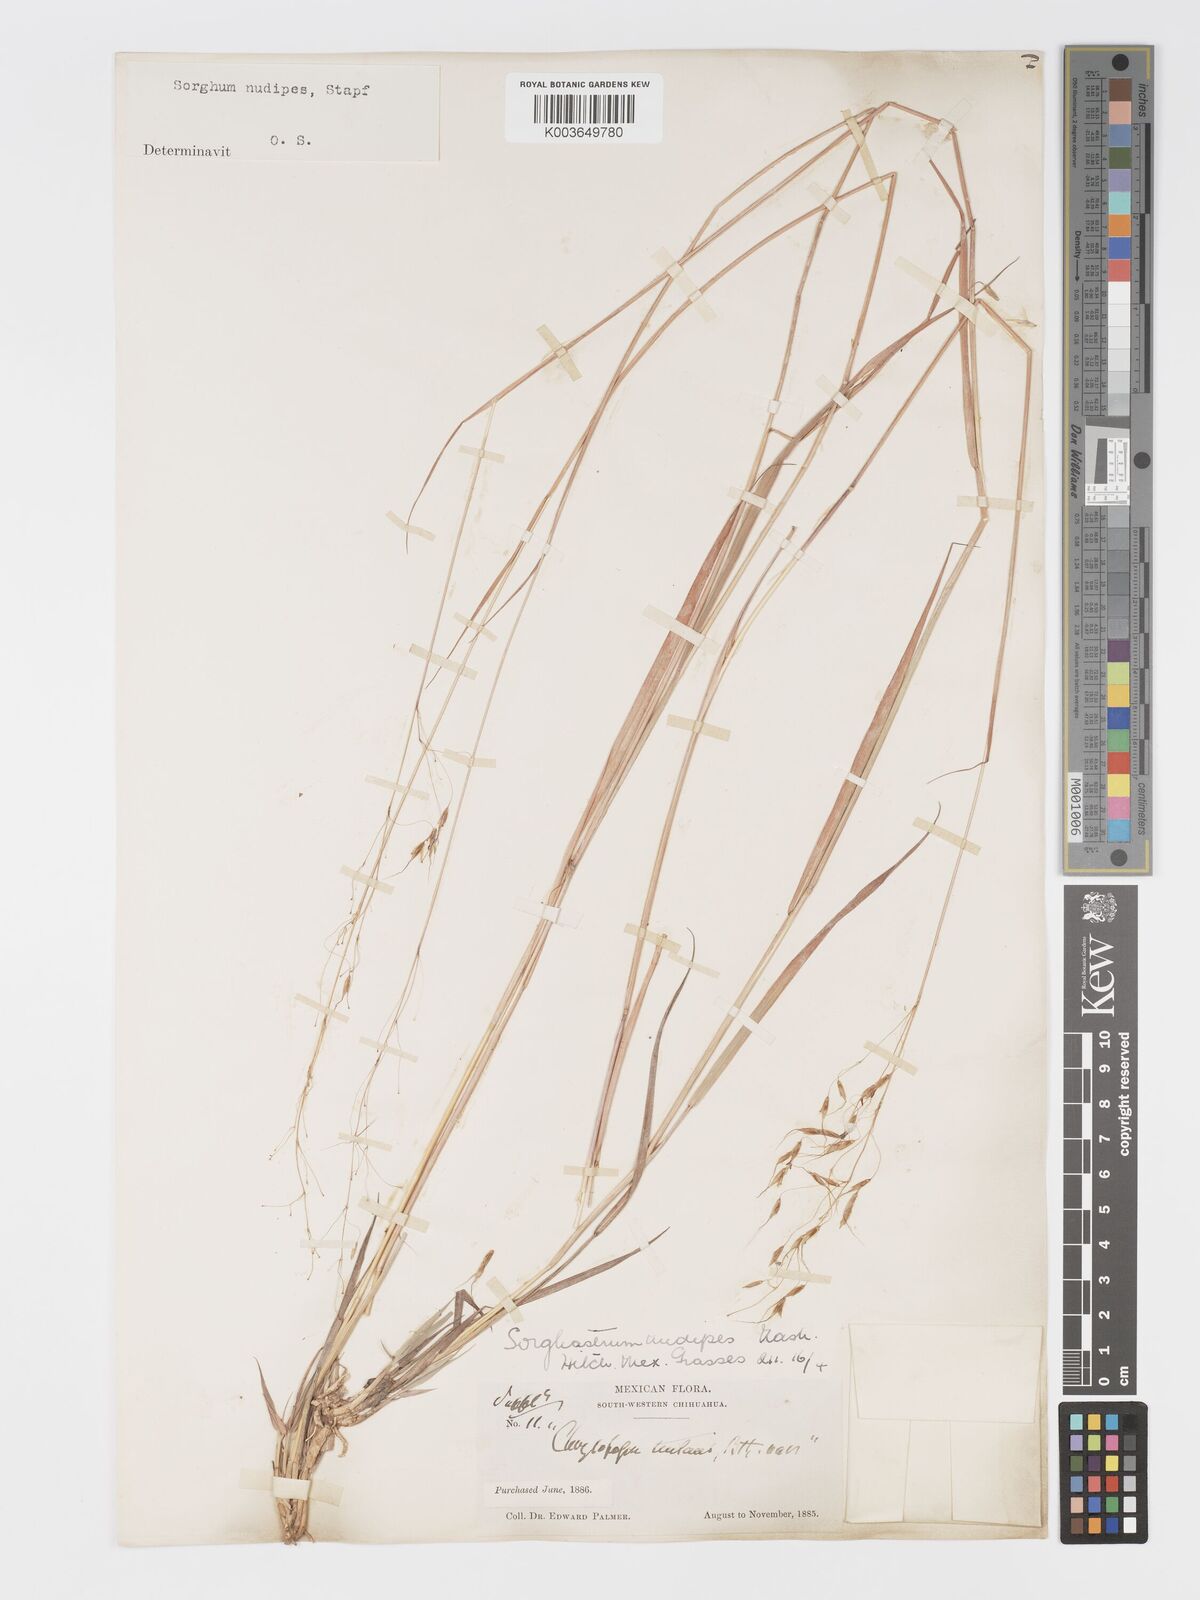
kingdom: Plantae
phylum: Tracheophyta
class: Liliopsida
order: Poales
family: Poaceae
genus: Sorghastrum
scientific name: Sorghastrum nudipes
